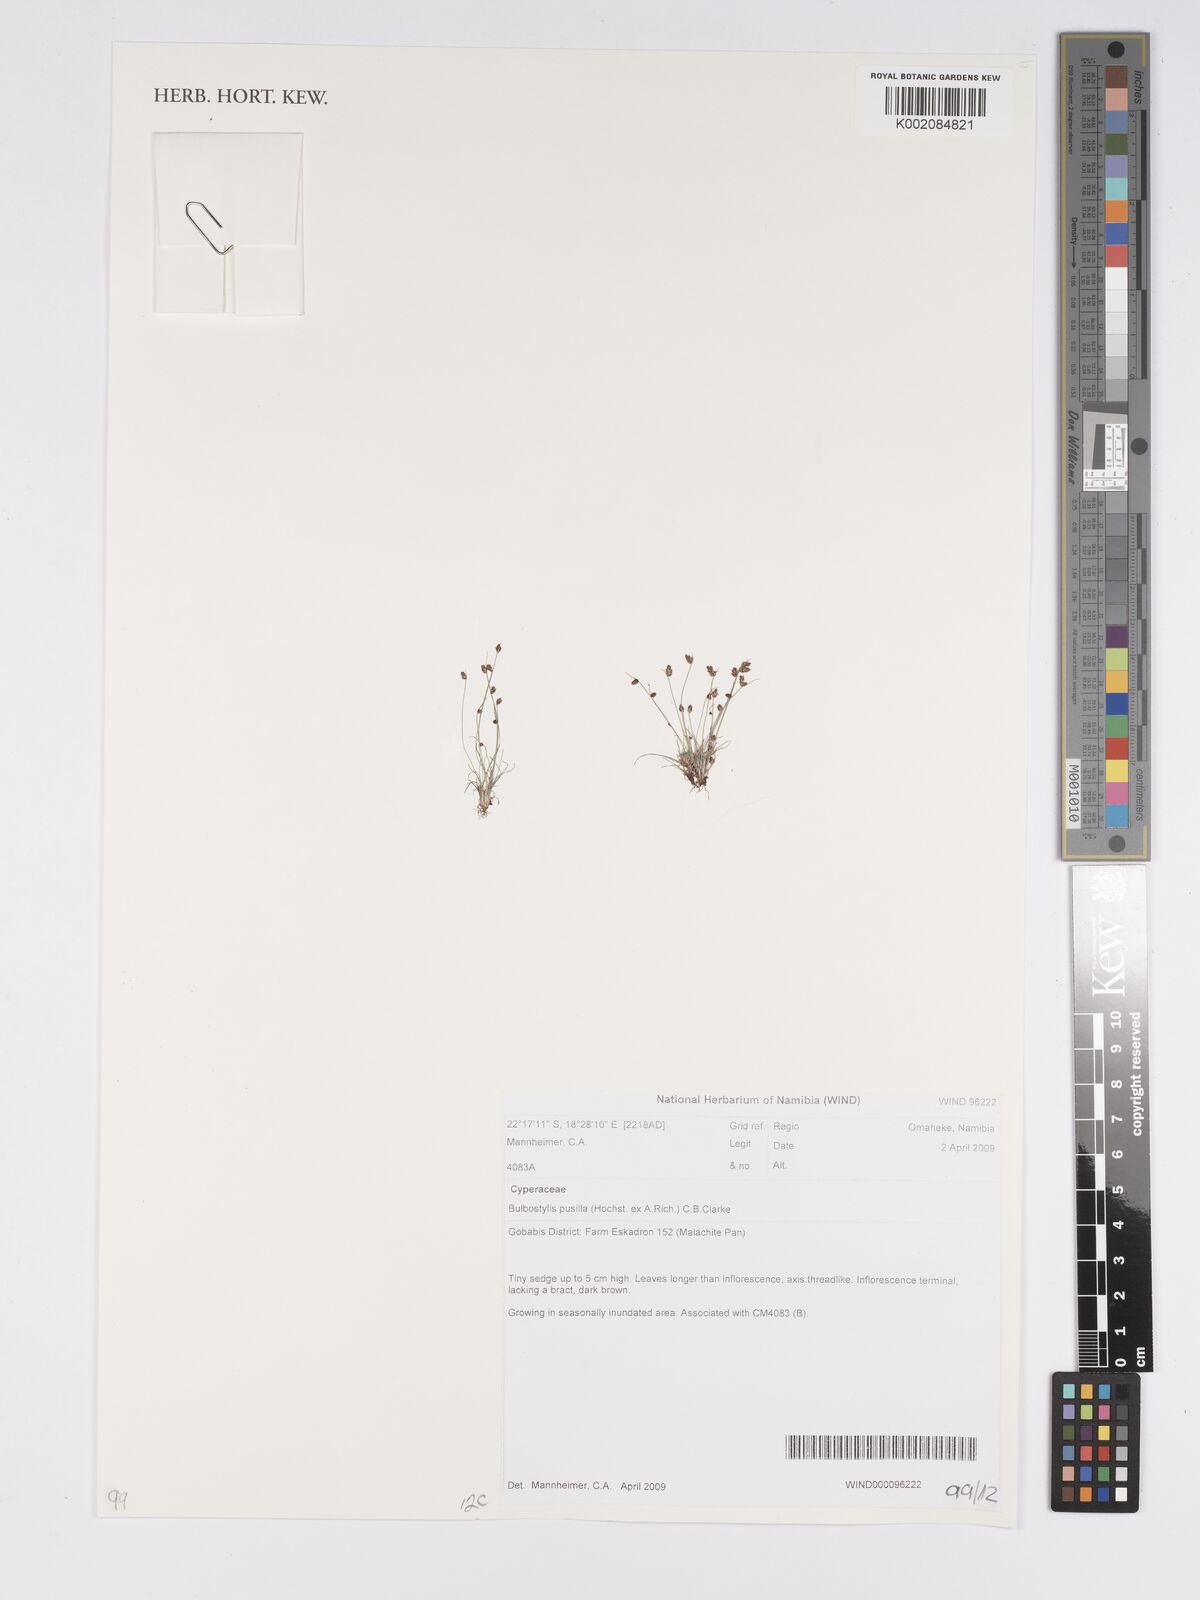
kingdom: Plantae
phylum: Tracheophyta
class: Liliopsida
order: Poales
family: Cyperaceae
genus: Bulbostylis
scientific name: Bulbostylis pusilla
